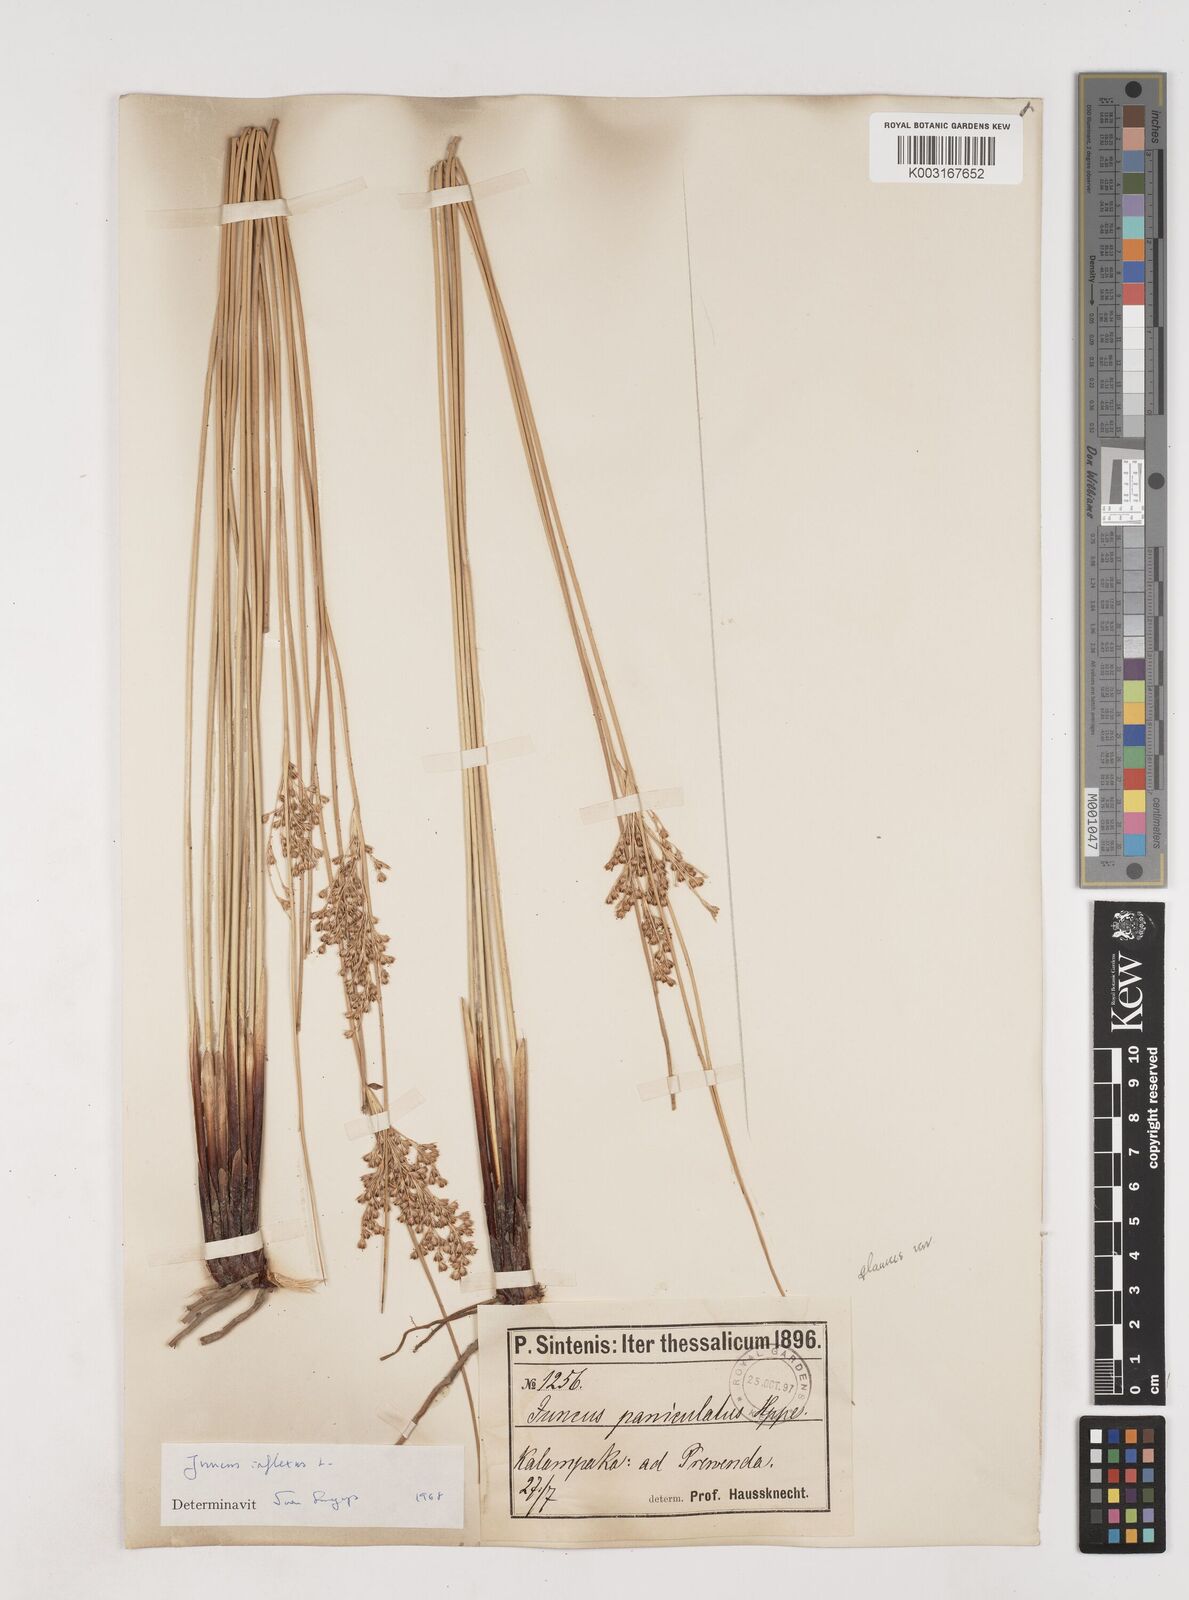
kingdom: Plantae
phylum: Tracheophyta
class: Liliopsida
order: Poales
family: Juncaceae
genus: Juncus
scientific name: Juncus inflexus
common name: Hard rush
